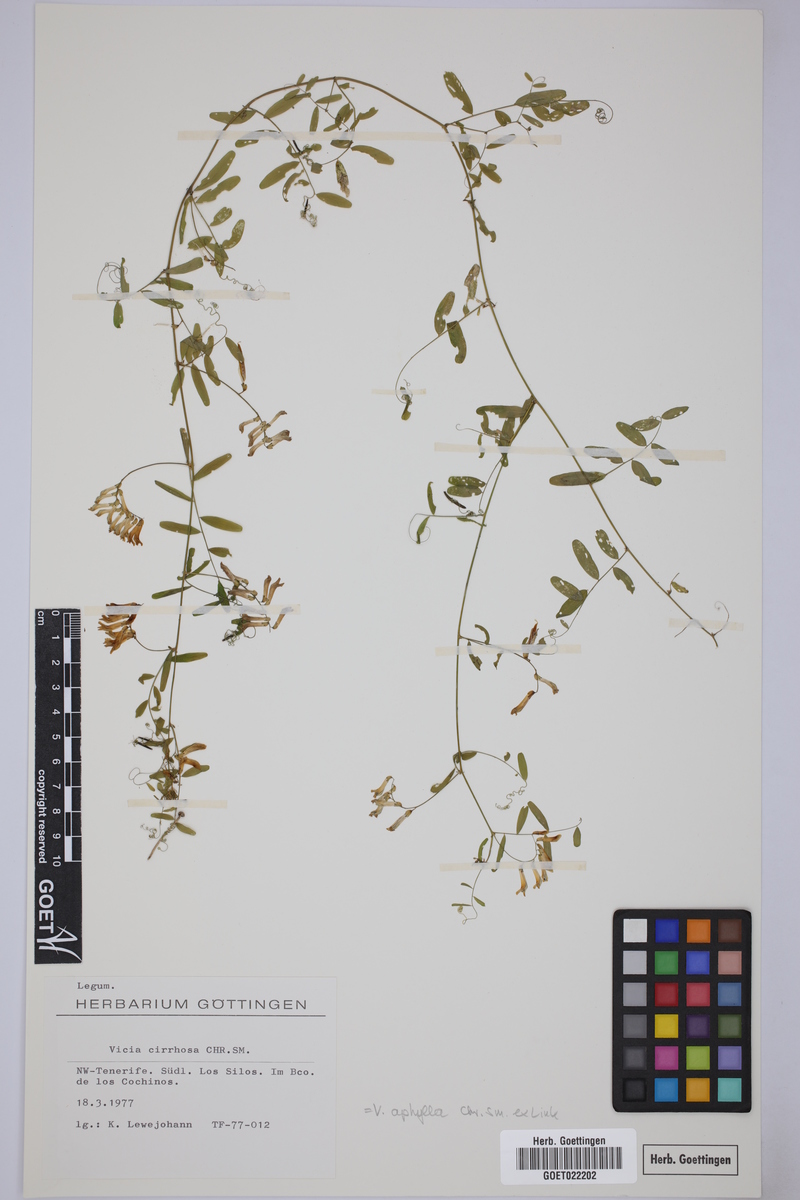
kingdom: Plantae
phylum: Tracheophyta
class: Magnoliopsida
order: Fabales
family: Fabaceae
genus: Vicia
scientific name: Vicia aphylla
